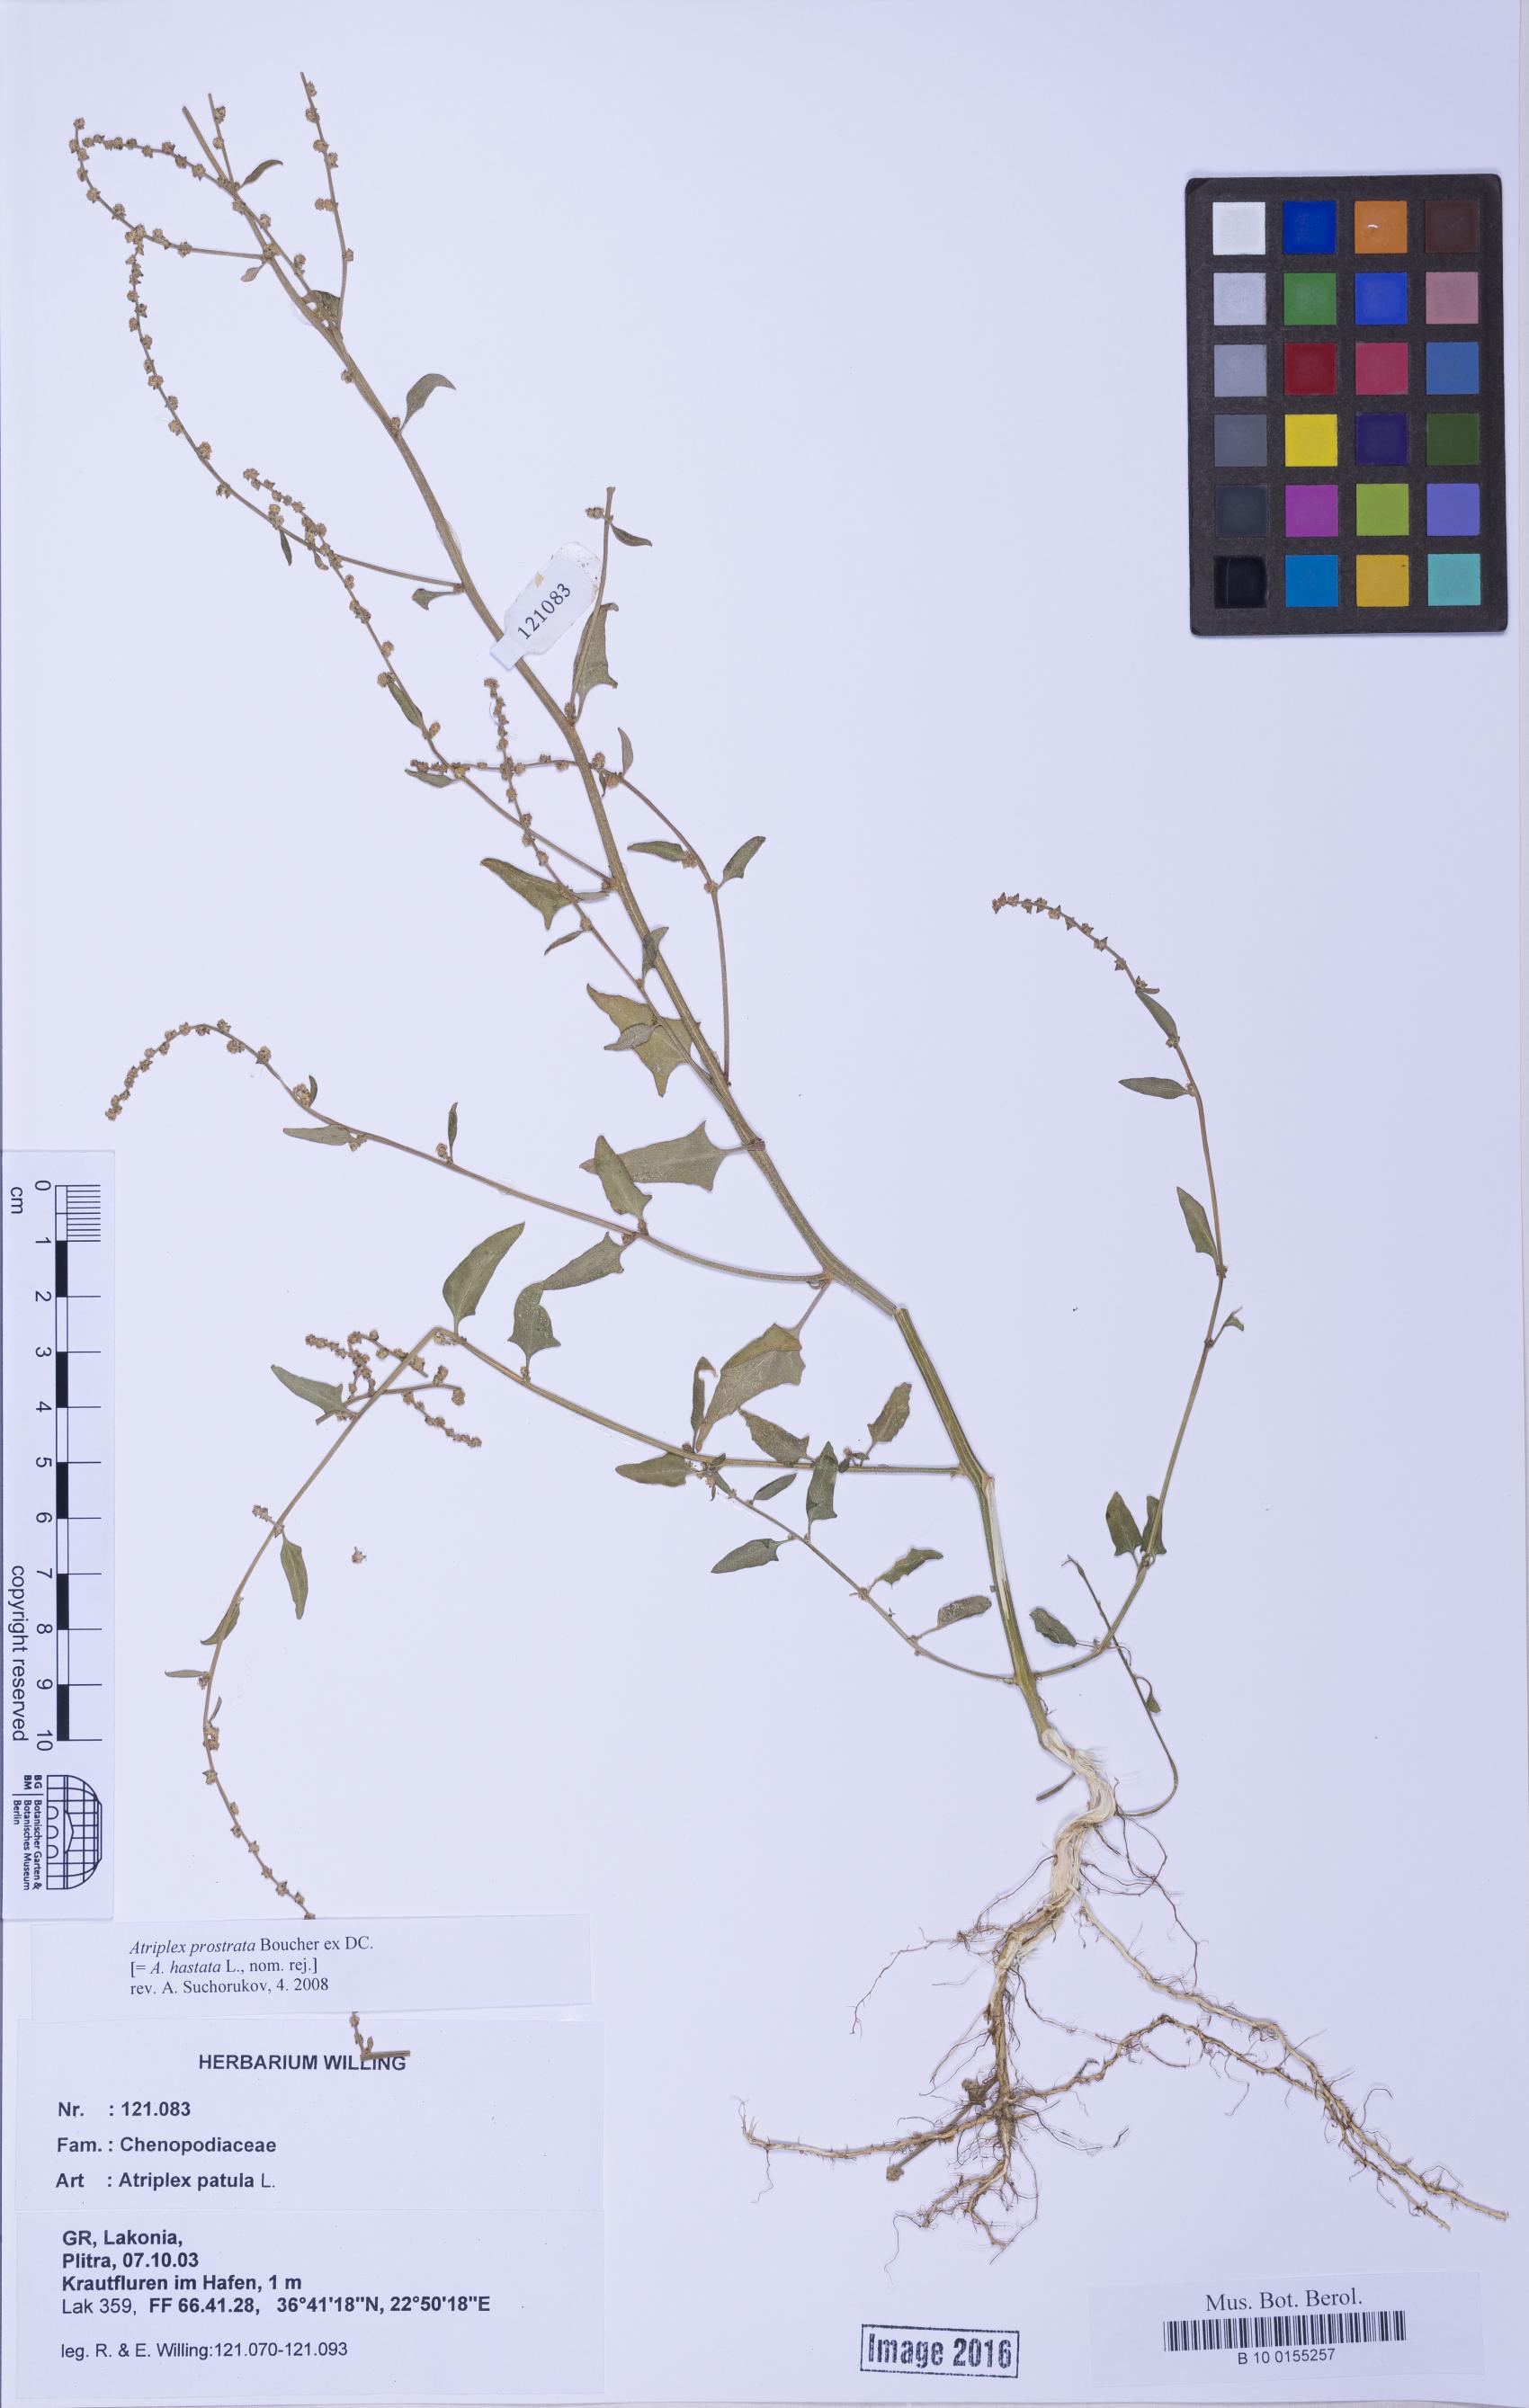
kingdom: Plantae
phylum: Tracheophyta
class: Magnoliopsida
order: Caryophyllales
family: Amaranthaceae
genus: Atriplex
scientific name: Atriplex prostrata
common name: Spear-leaved orache
